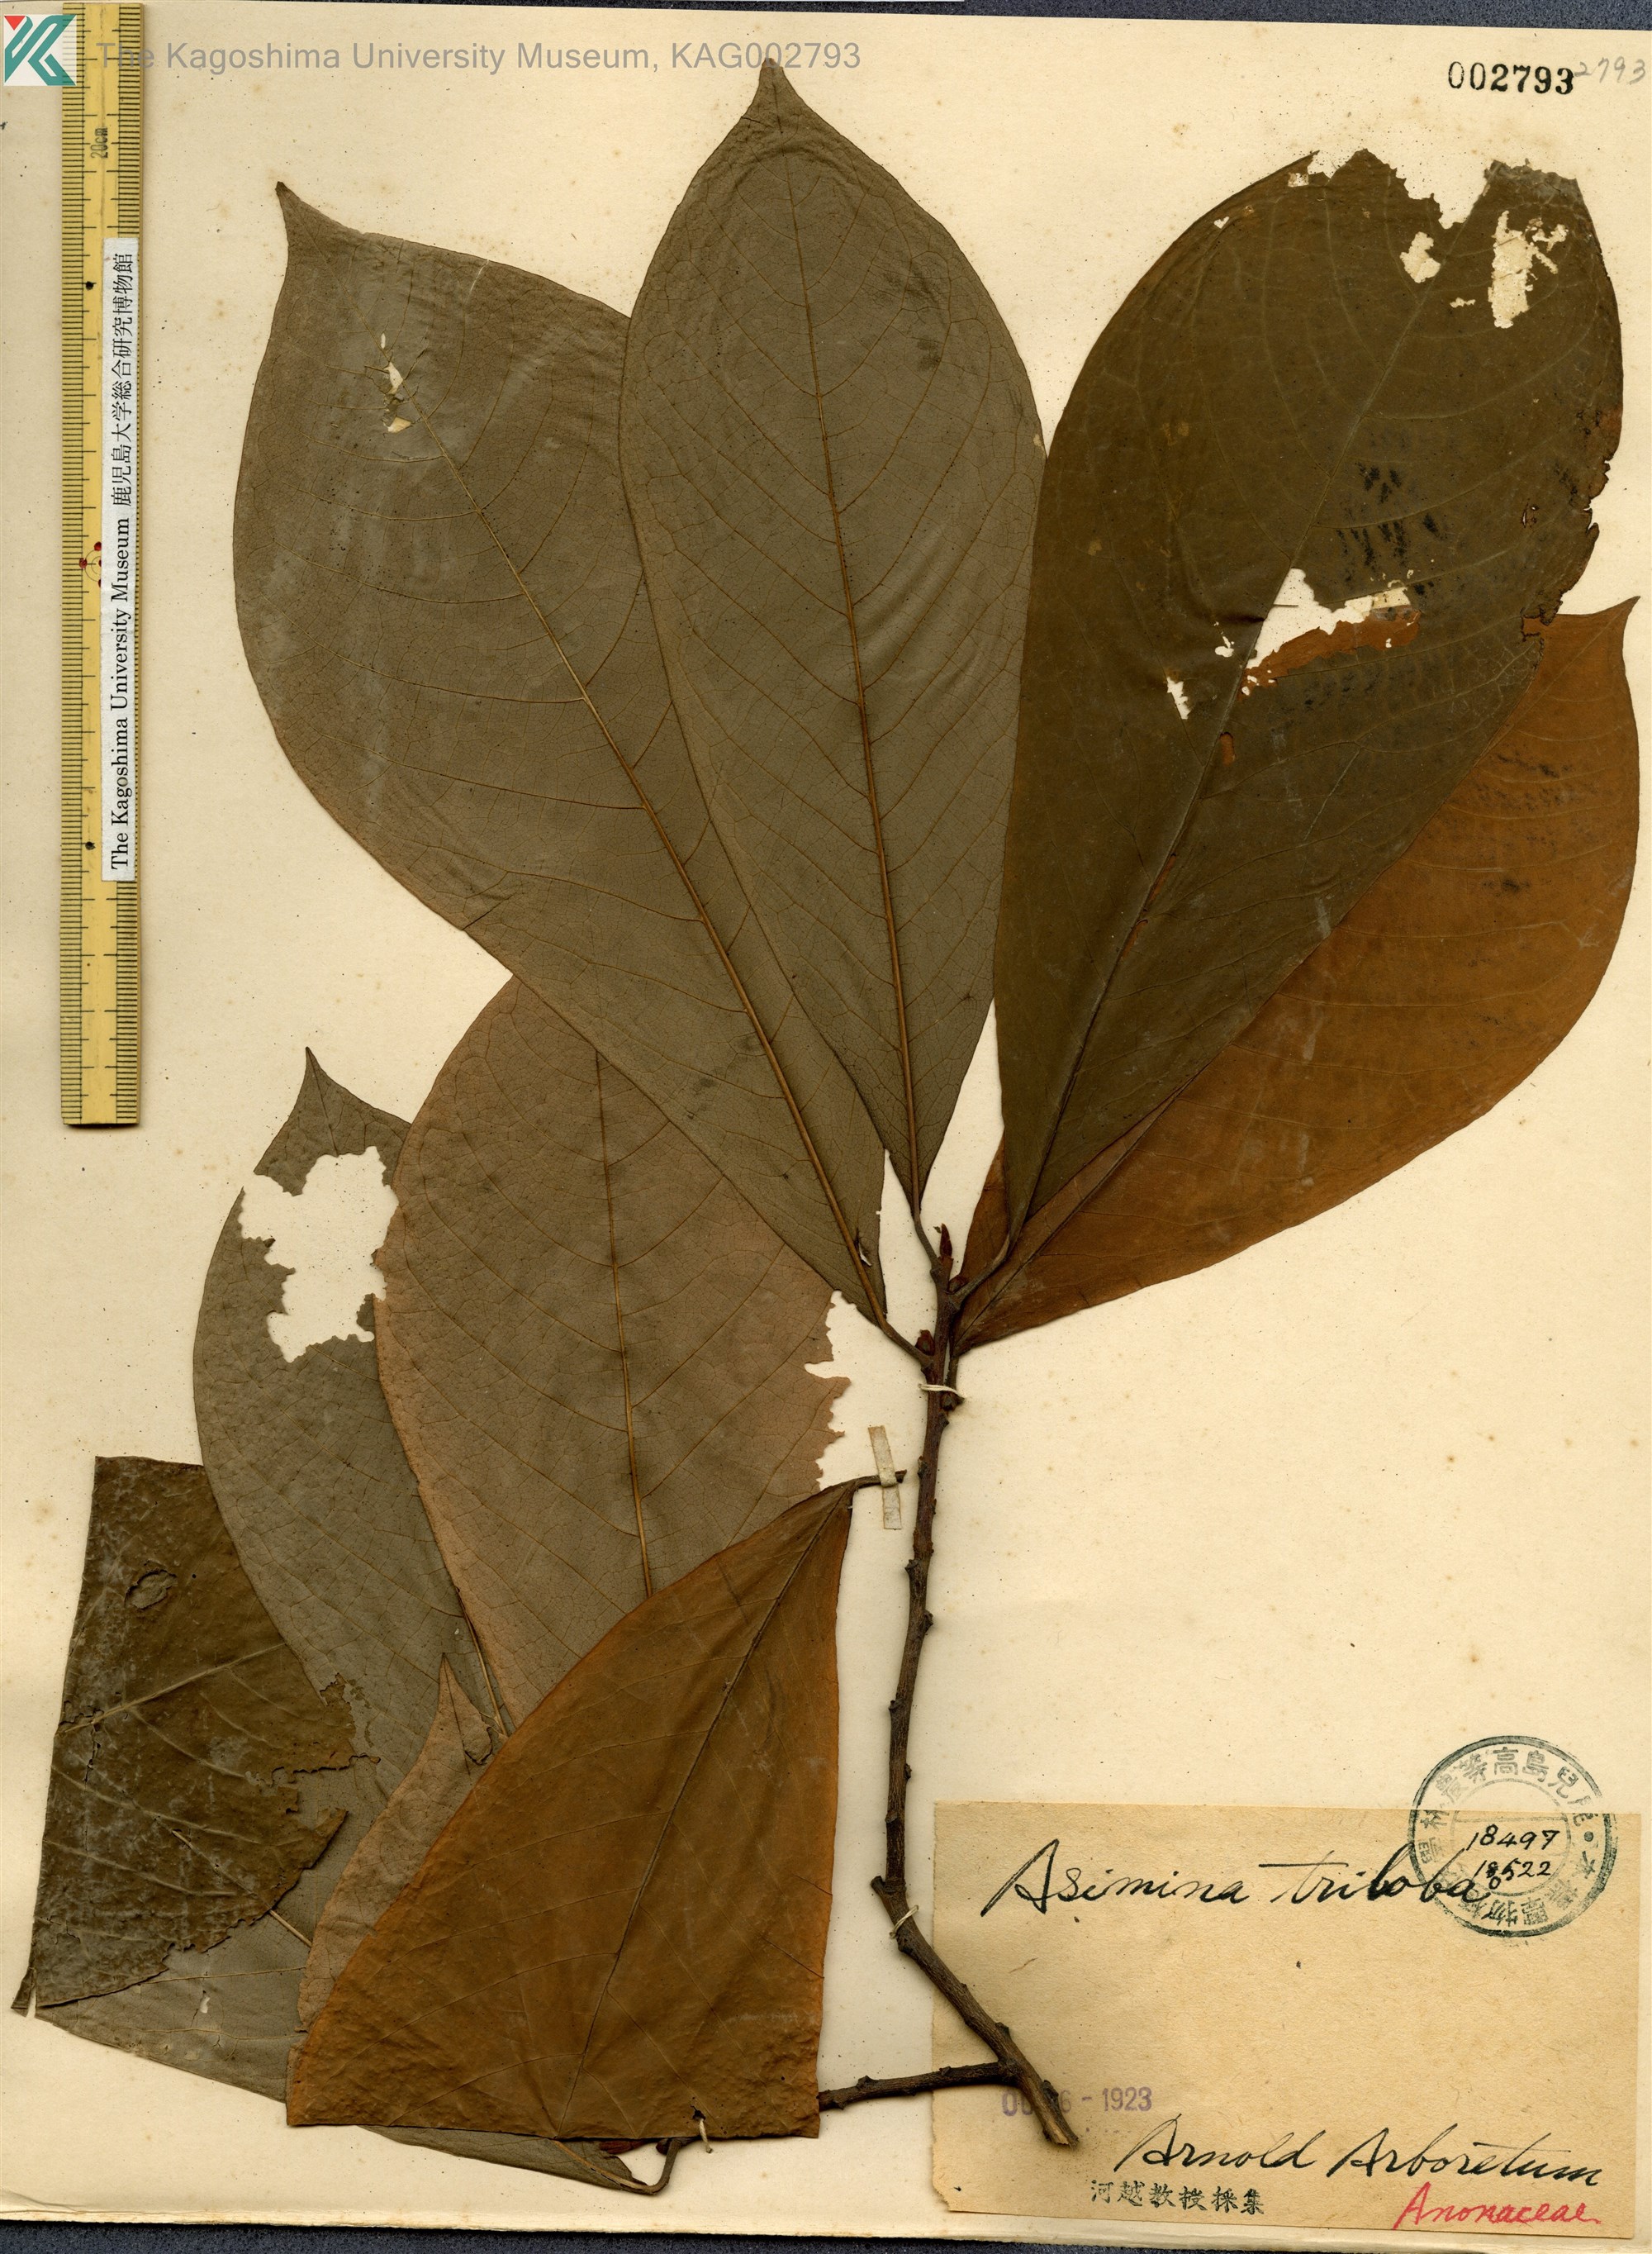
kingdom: Plantae
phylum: Tracheophyta
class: Magnoliopsida
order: Magnoliales
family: Annonaceae
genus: Asimina
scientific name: Asimina triloba
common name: Dog-banana
